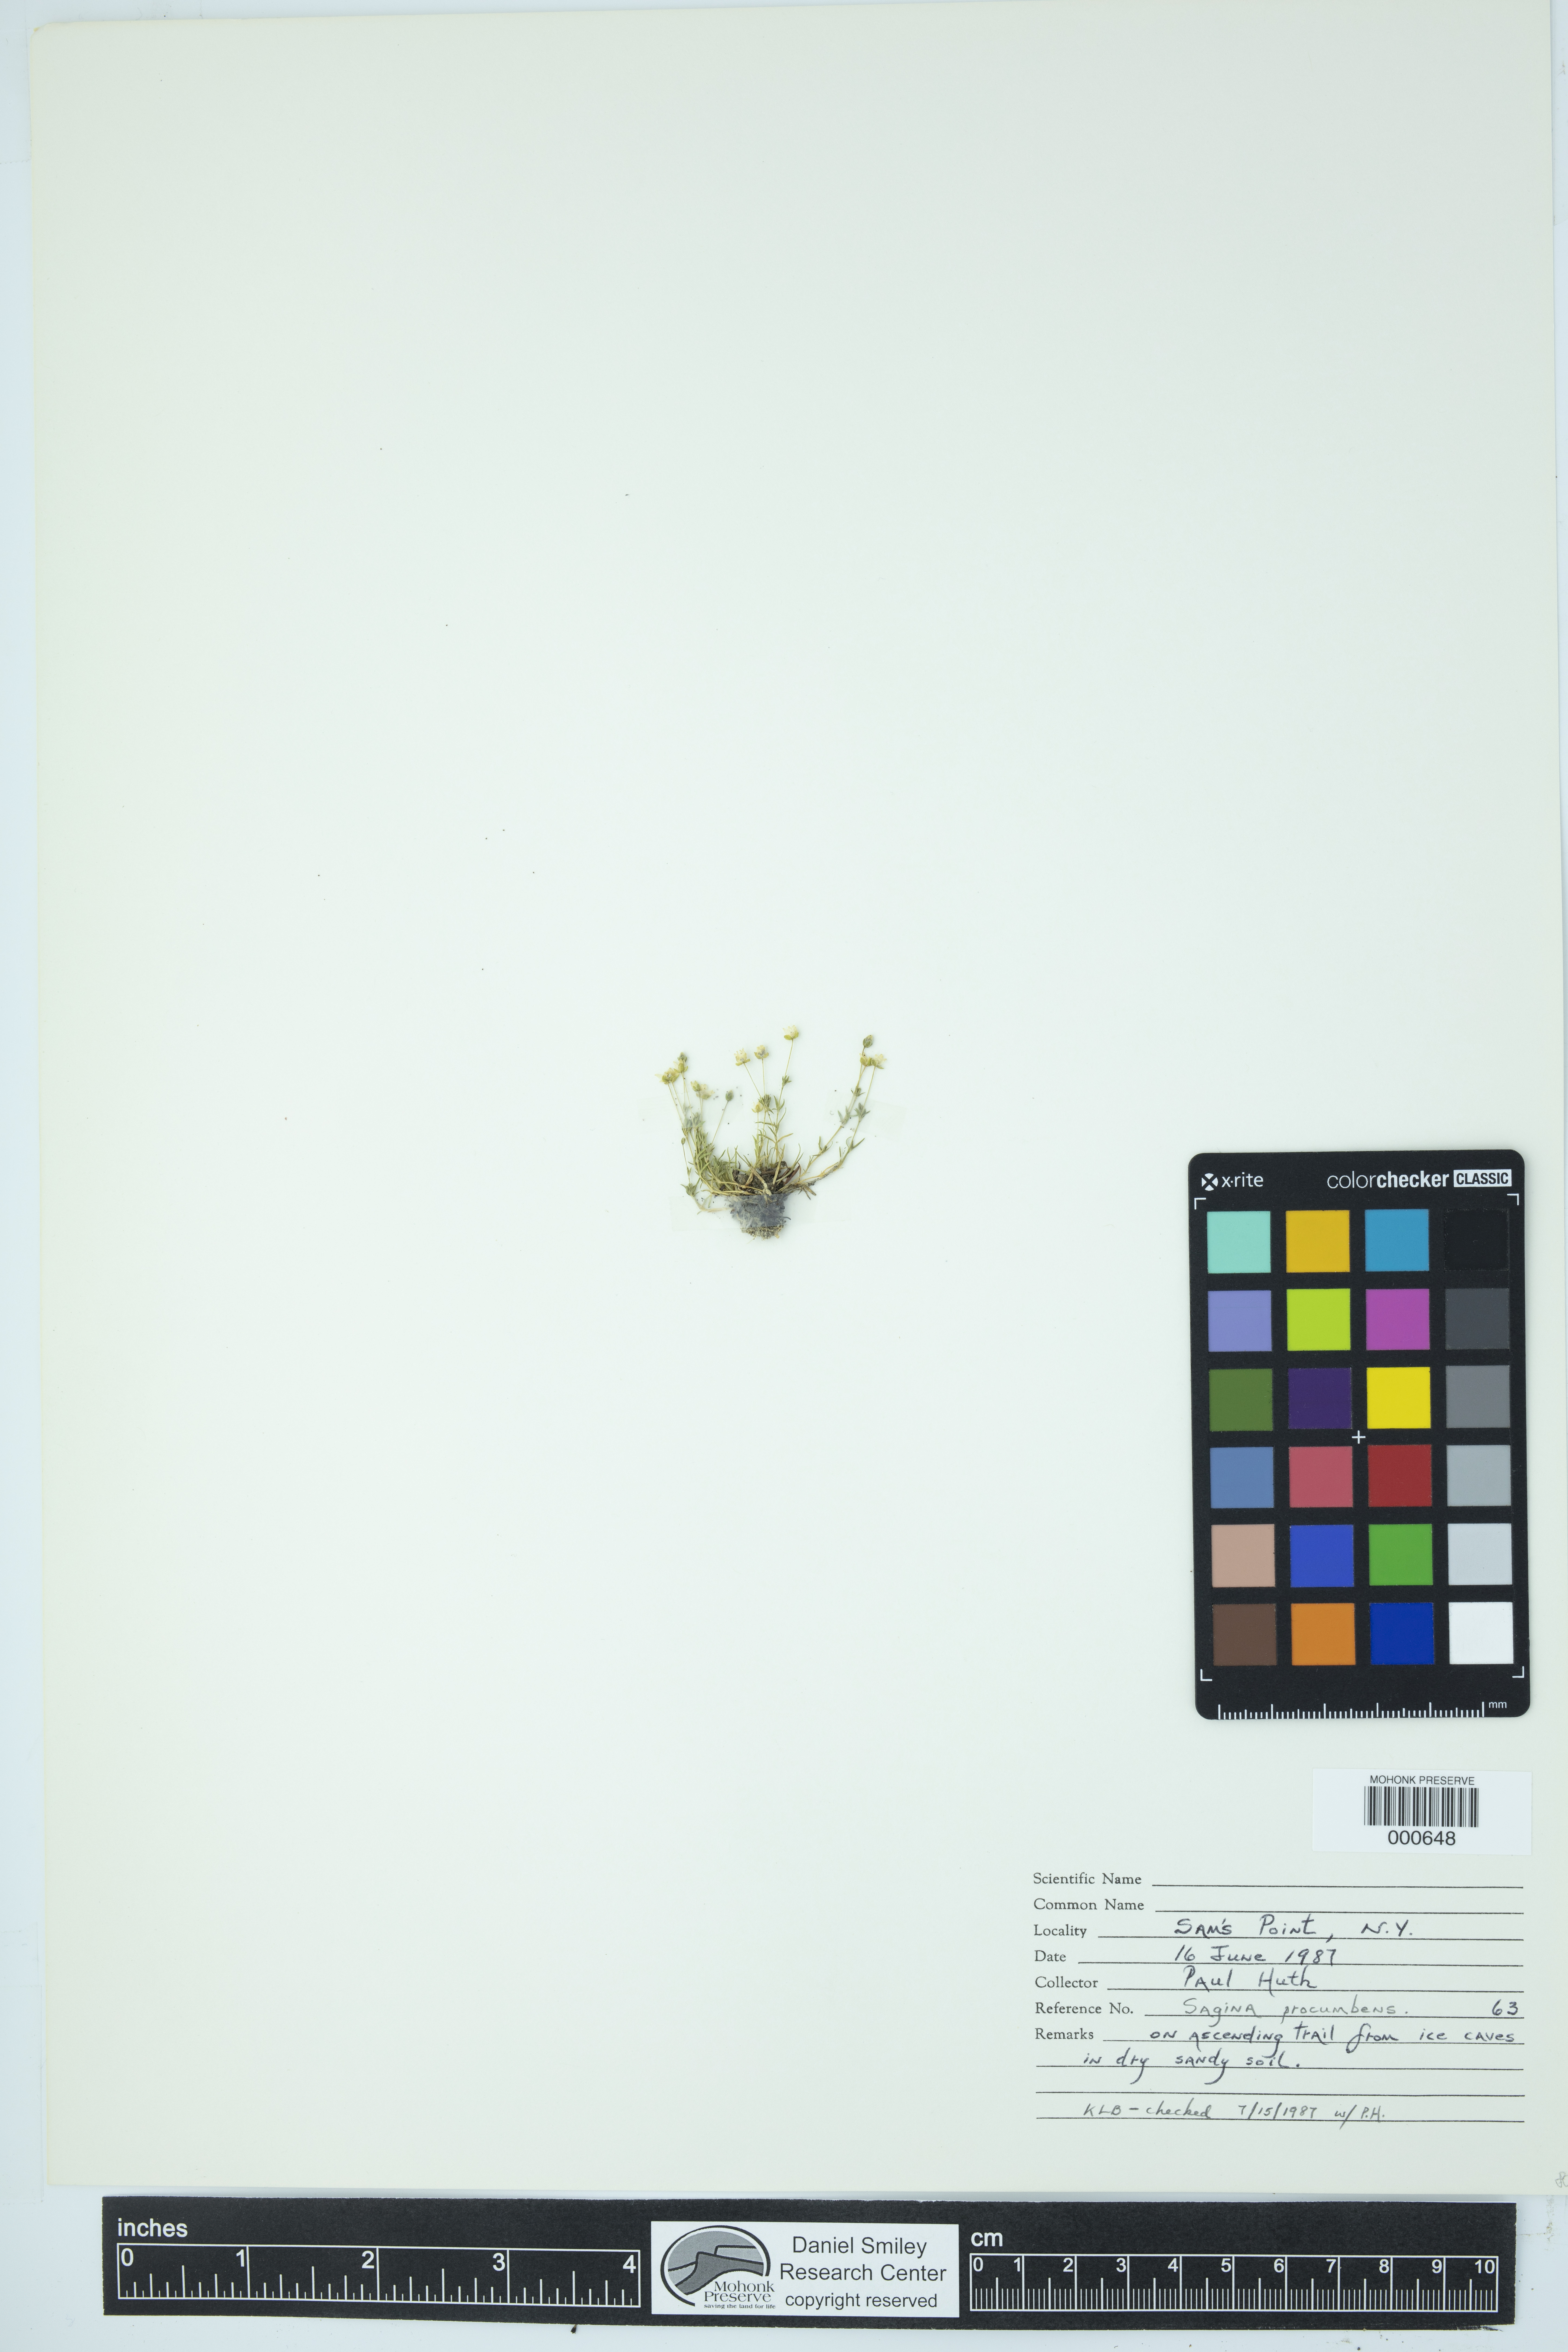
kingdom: Plantae
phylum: Tracheophyta
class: Magnoliopsida
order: Caryophyllales
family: Caryophyllaceae
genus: Sagina
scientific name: Sagina procumbens
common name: Procumbent pearlwort
